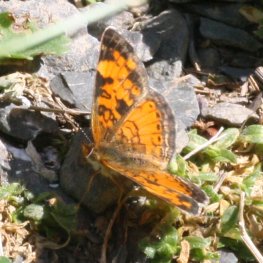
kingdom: Animalia
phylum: Arthropoda
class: Insecta
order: Lepidoptera
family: Nymphalidae
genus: Phyciodes
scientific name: Phyciodes tharos
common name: Northern Crescent
